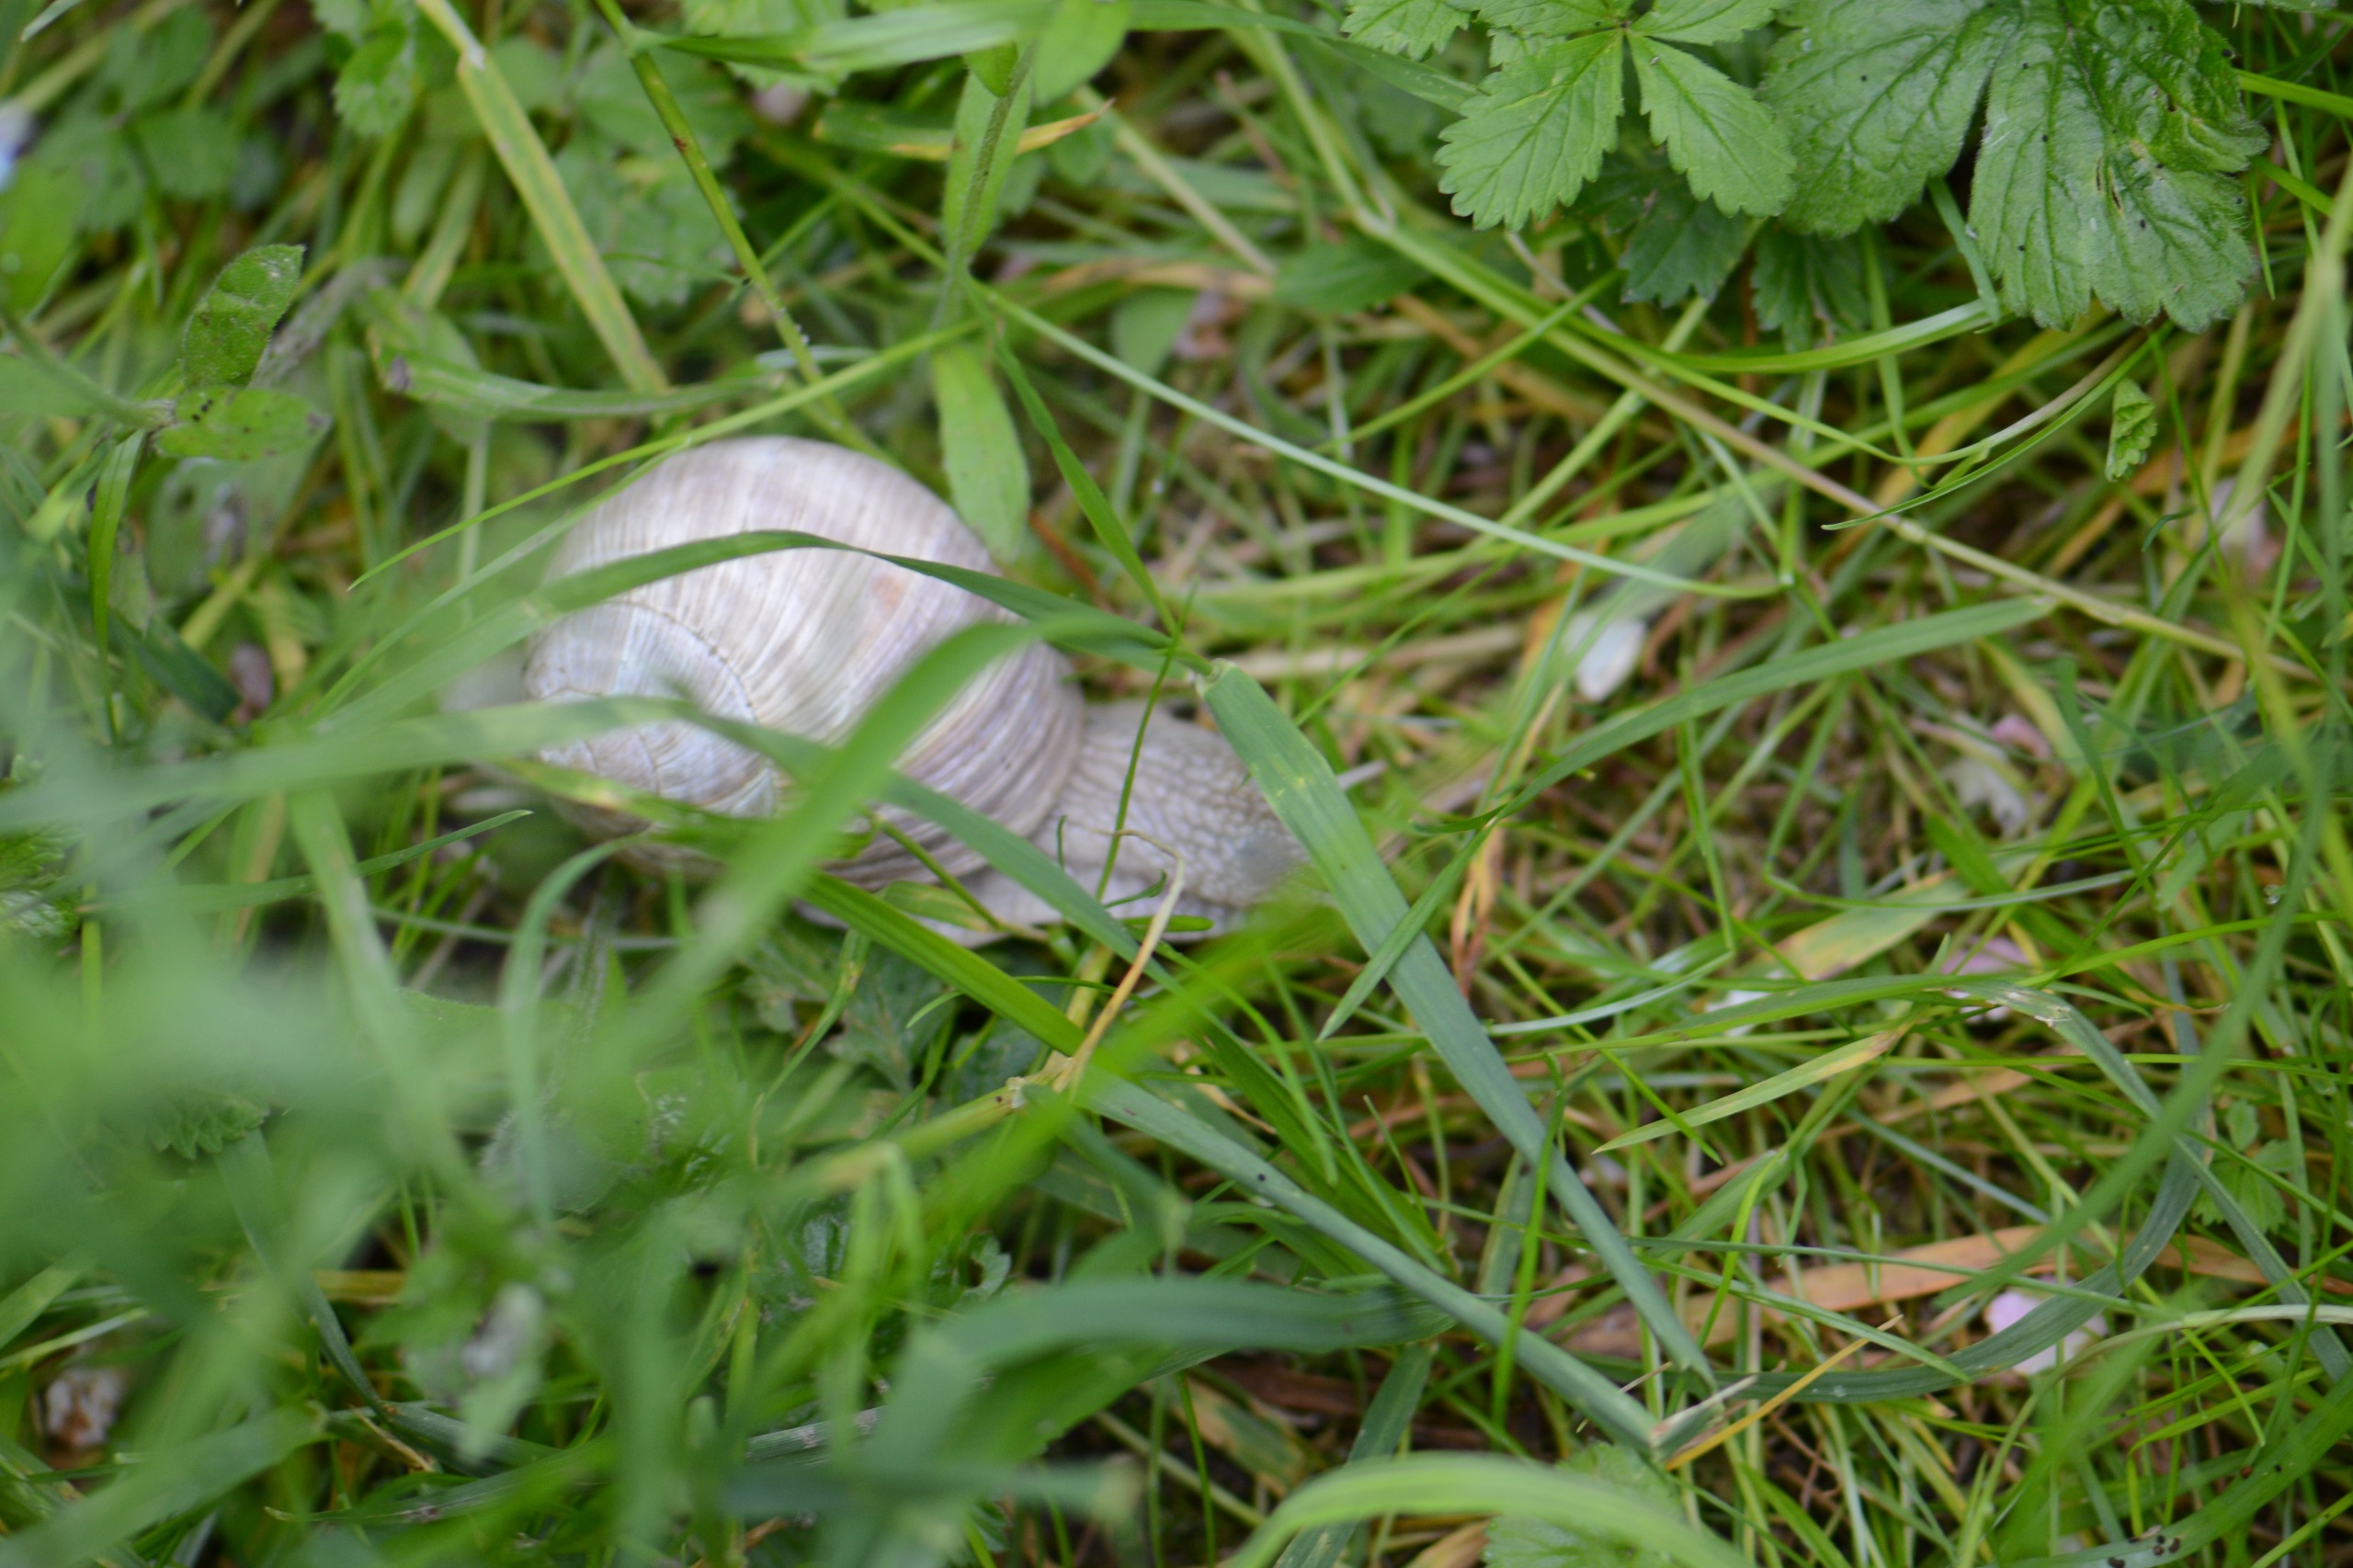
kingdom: Animalia
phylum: Mollusca
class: Gastropoda
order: Stylommatophora
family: Helicidae
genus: Helix
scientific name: Helix pomatia
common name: Vinbjergsnegl
